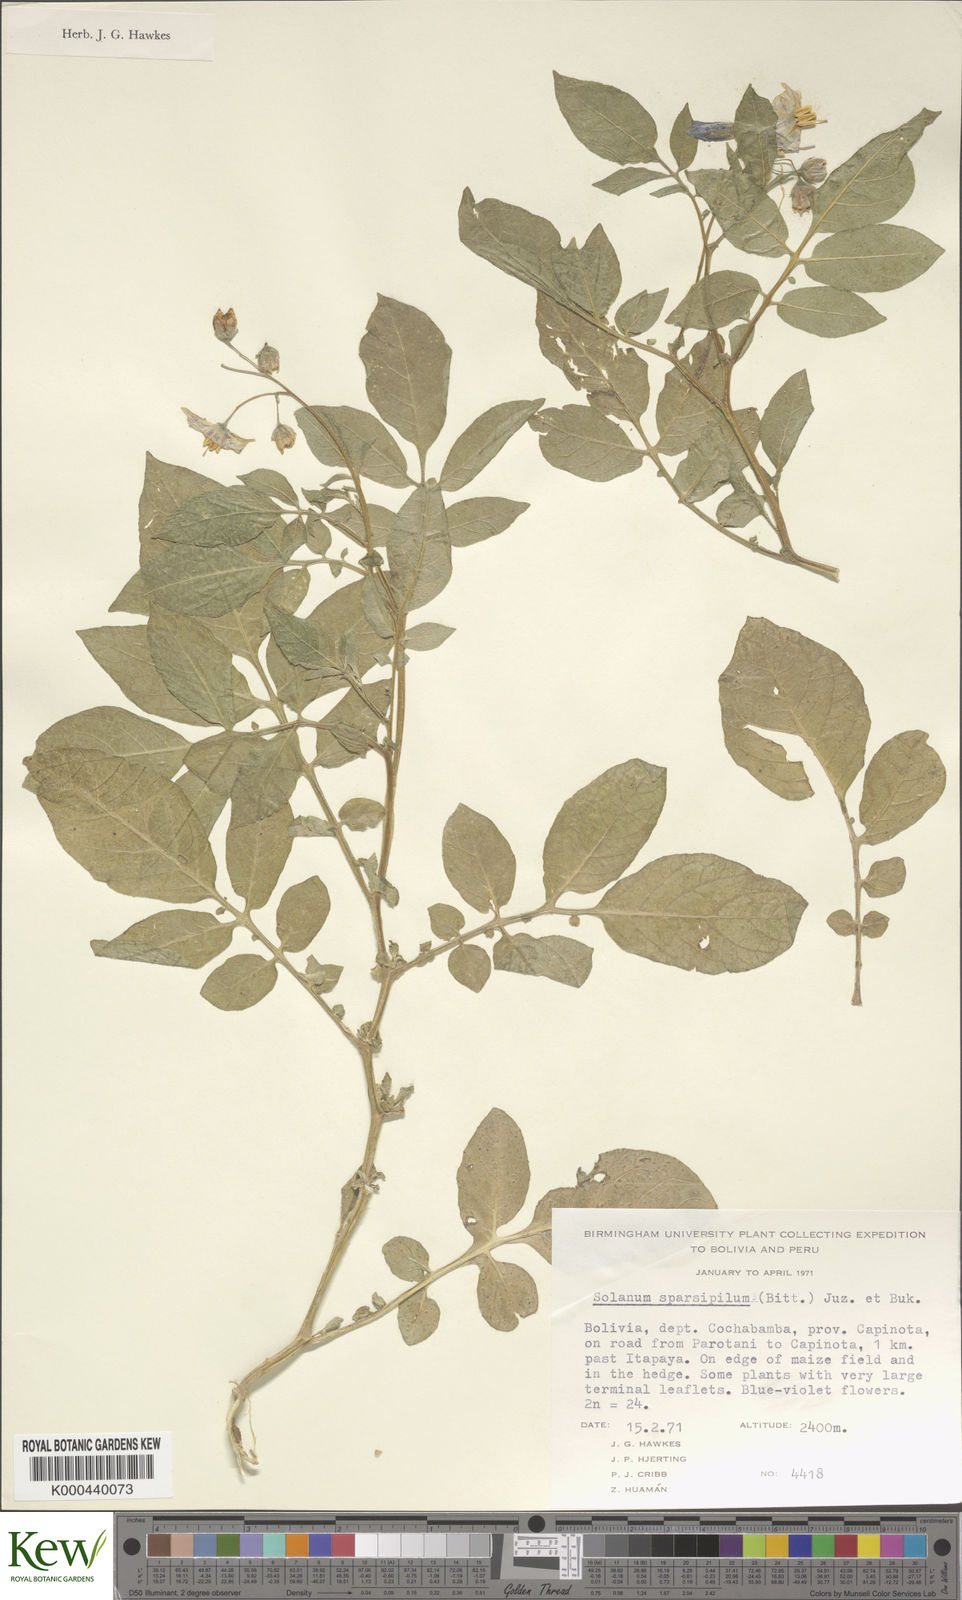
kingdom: Plantae
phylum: Tracheophyta
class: Magnoliopsida
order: Solanales
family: Solanaceae
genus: Solanum
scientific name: Solanum brevicaule
